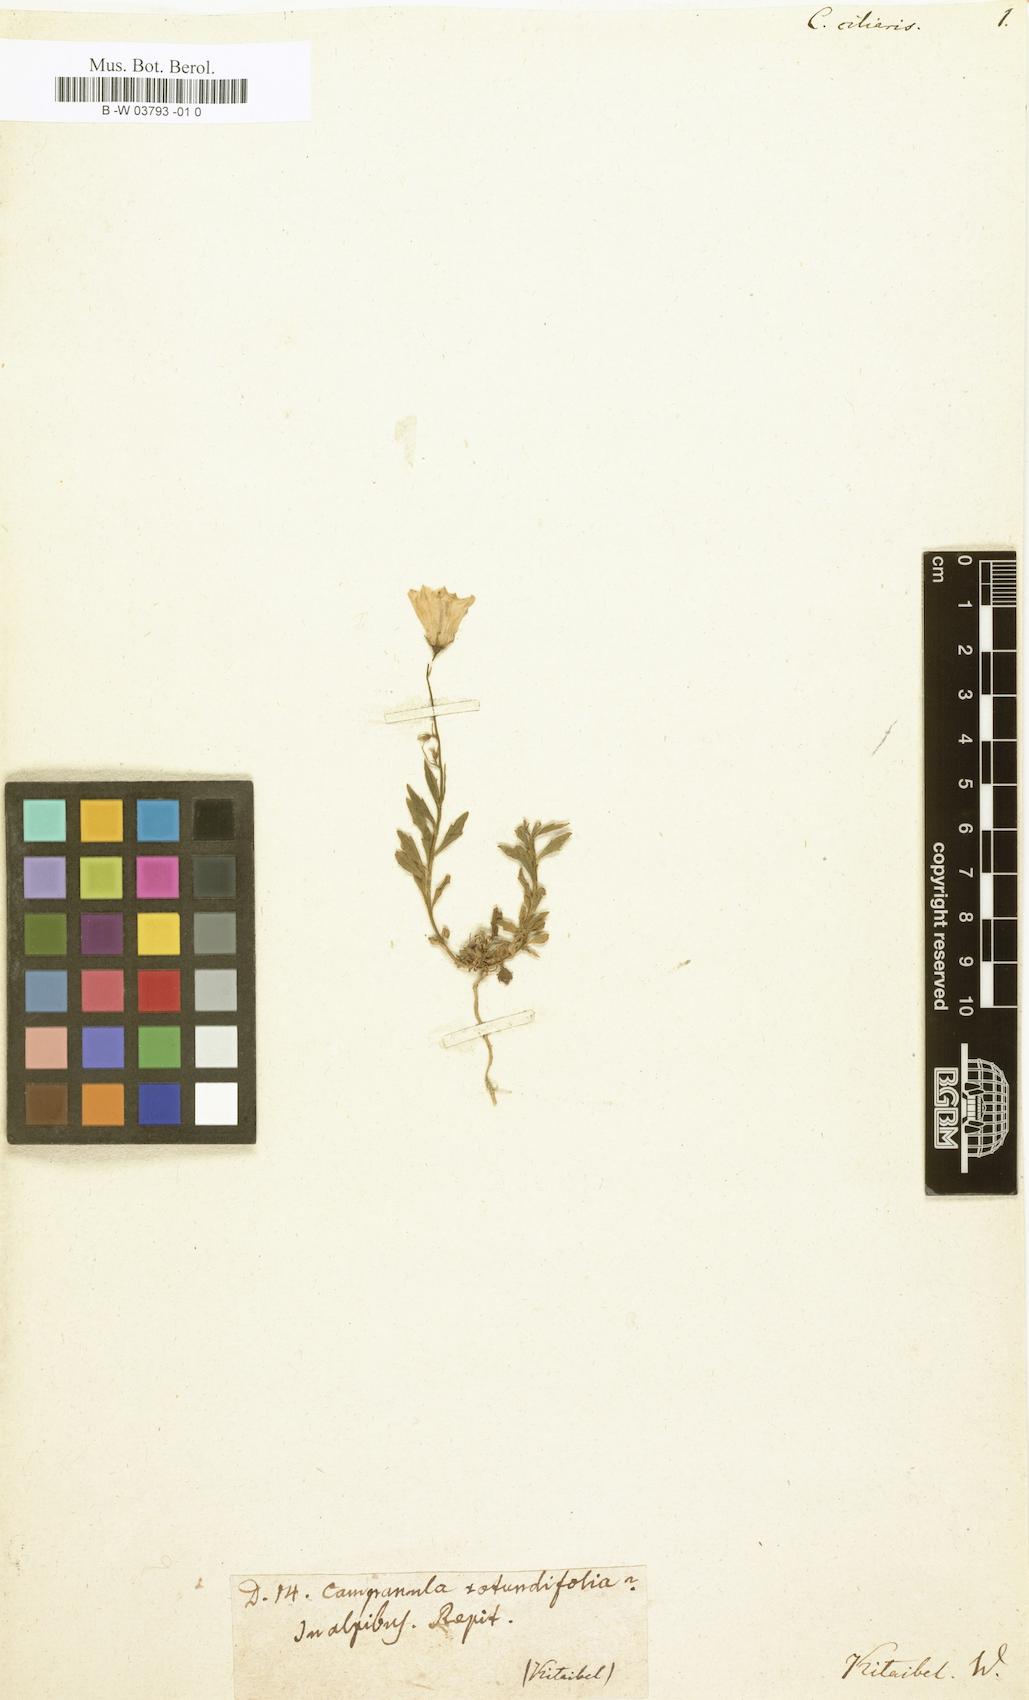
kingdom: Plantae
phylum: Tracheophyta
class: Magnoliopsida
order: Asterales
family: Campanulaceae
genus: Roella
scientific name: Roella ciliata
